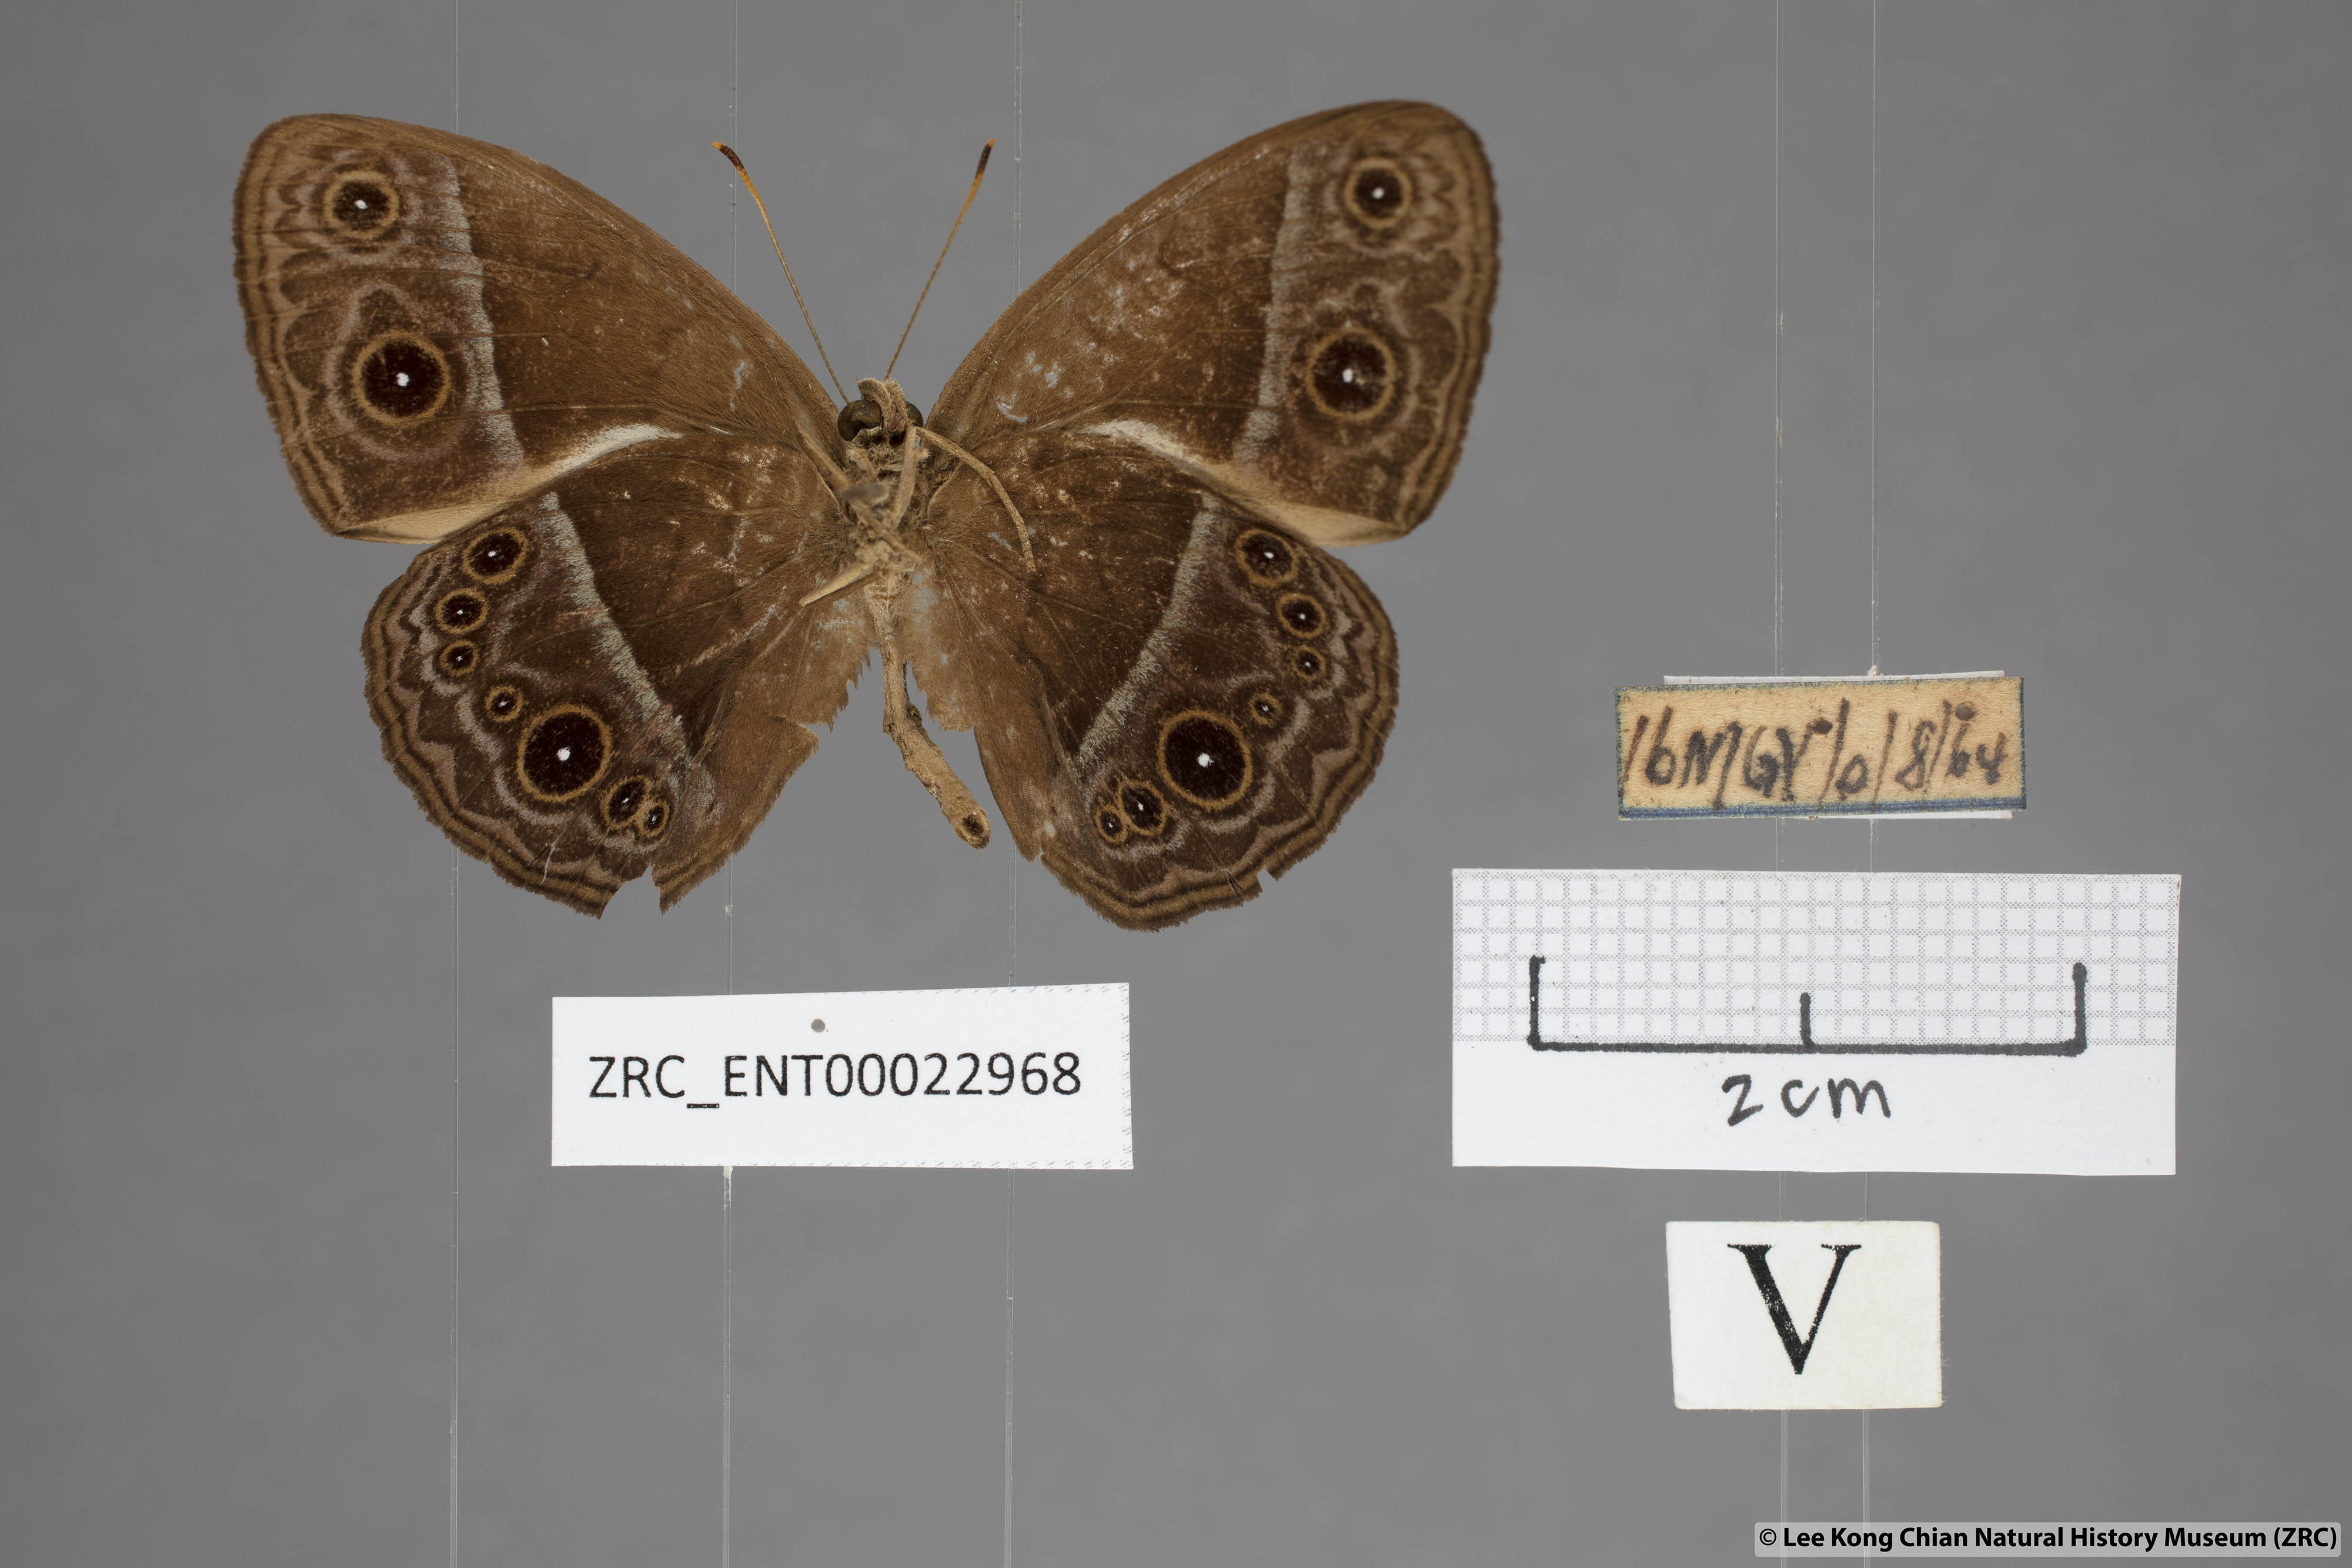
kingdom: Animalia
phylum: Arthropoda
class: Insecta
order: Lepidoptera
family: Nymphalidae
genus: Mycalesis
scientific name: Mycalesis oroatis
